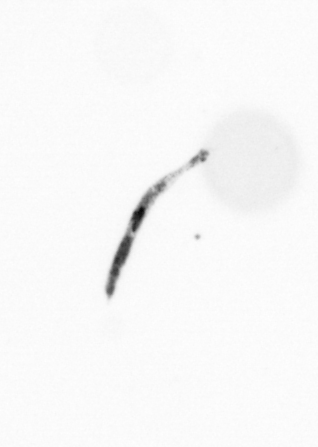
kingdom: Chromista
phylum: Ochrophyta
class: Bacillariophyceae
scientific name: Bacillariophyceae
